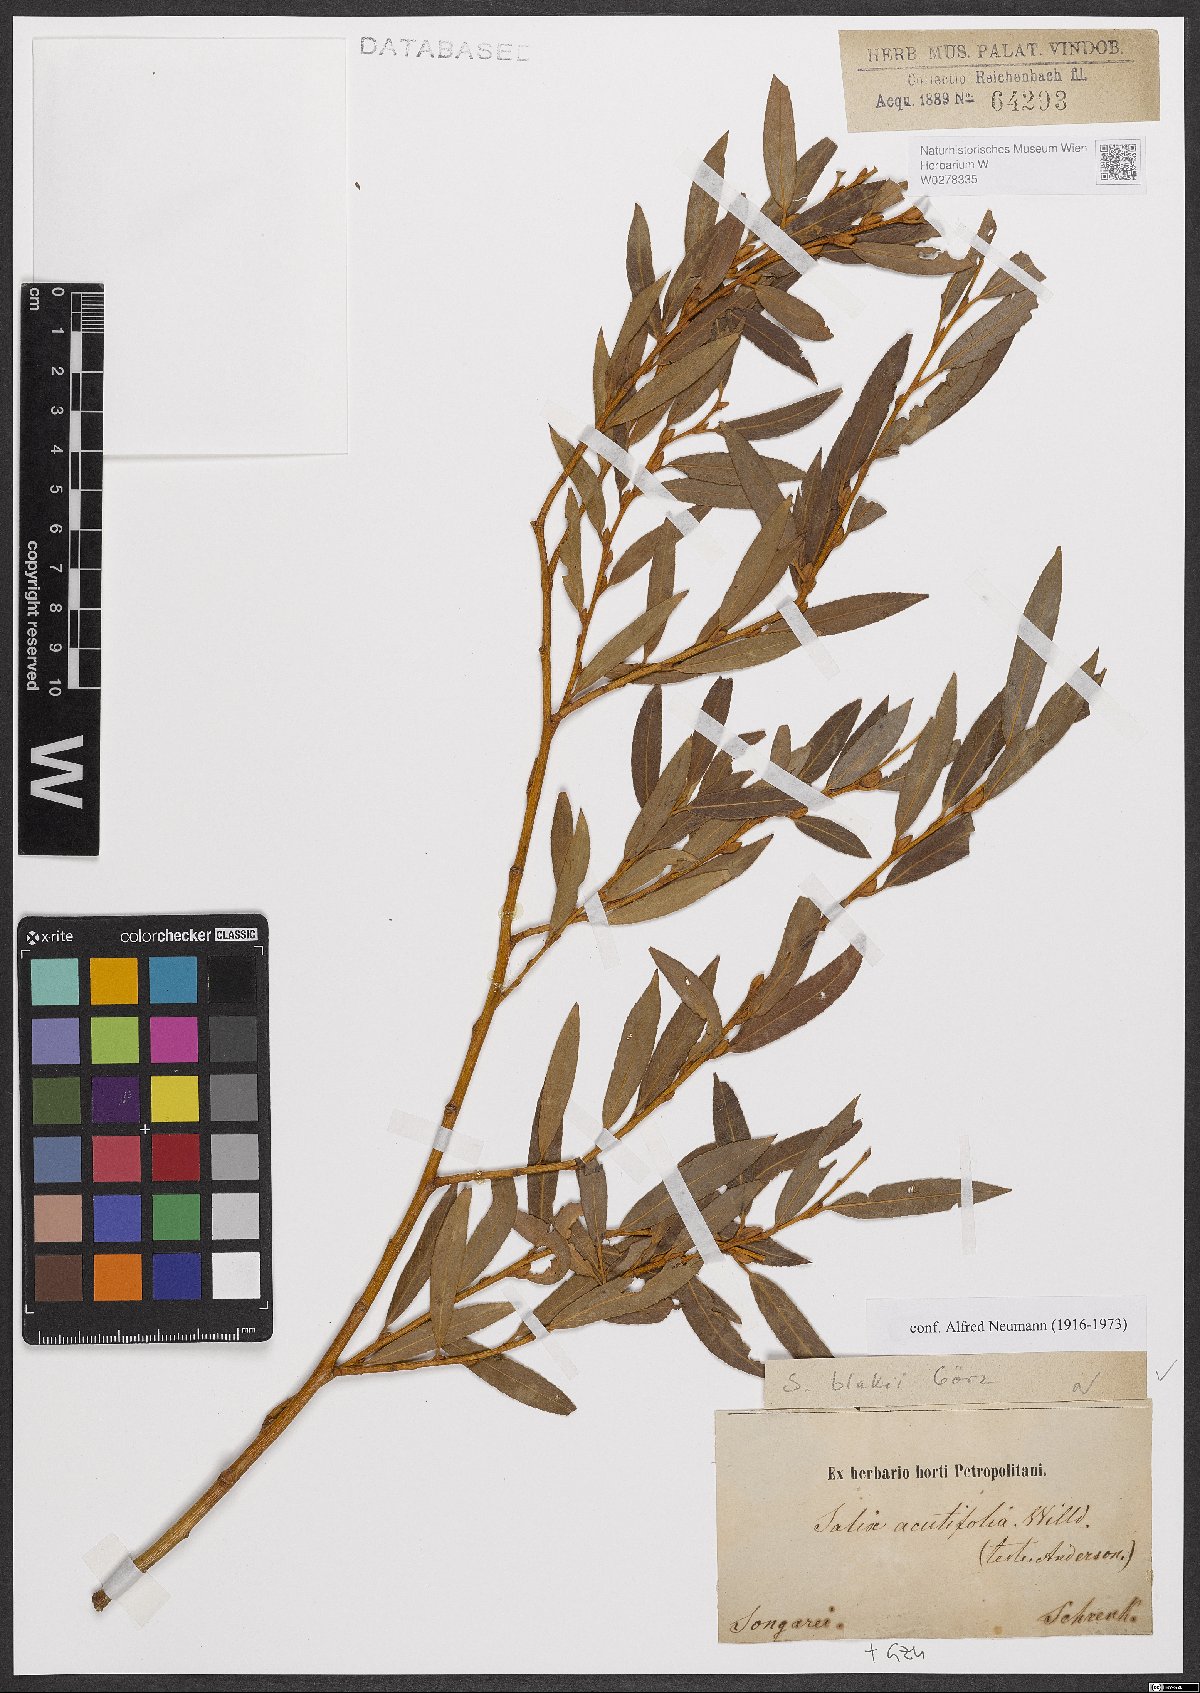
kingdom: Plantae
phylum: Tracheophyta
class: Magnoliopsida
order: Malpighiales
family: Salicaceae
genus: Salix
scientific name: Salix blakii
